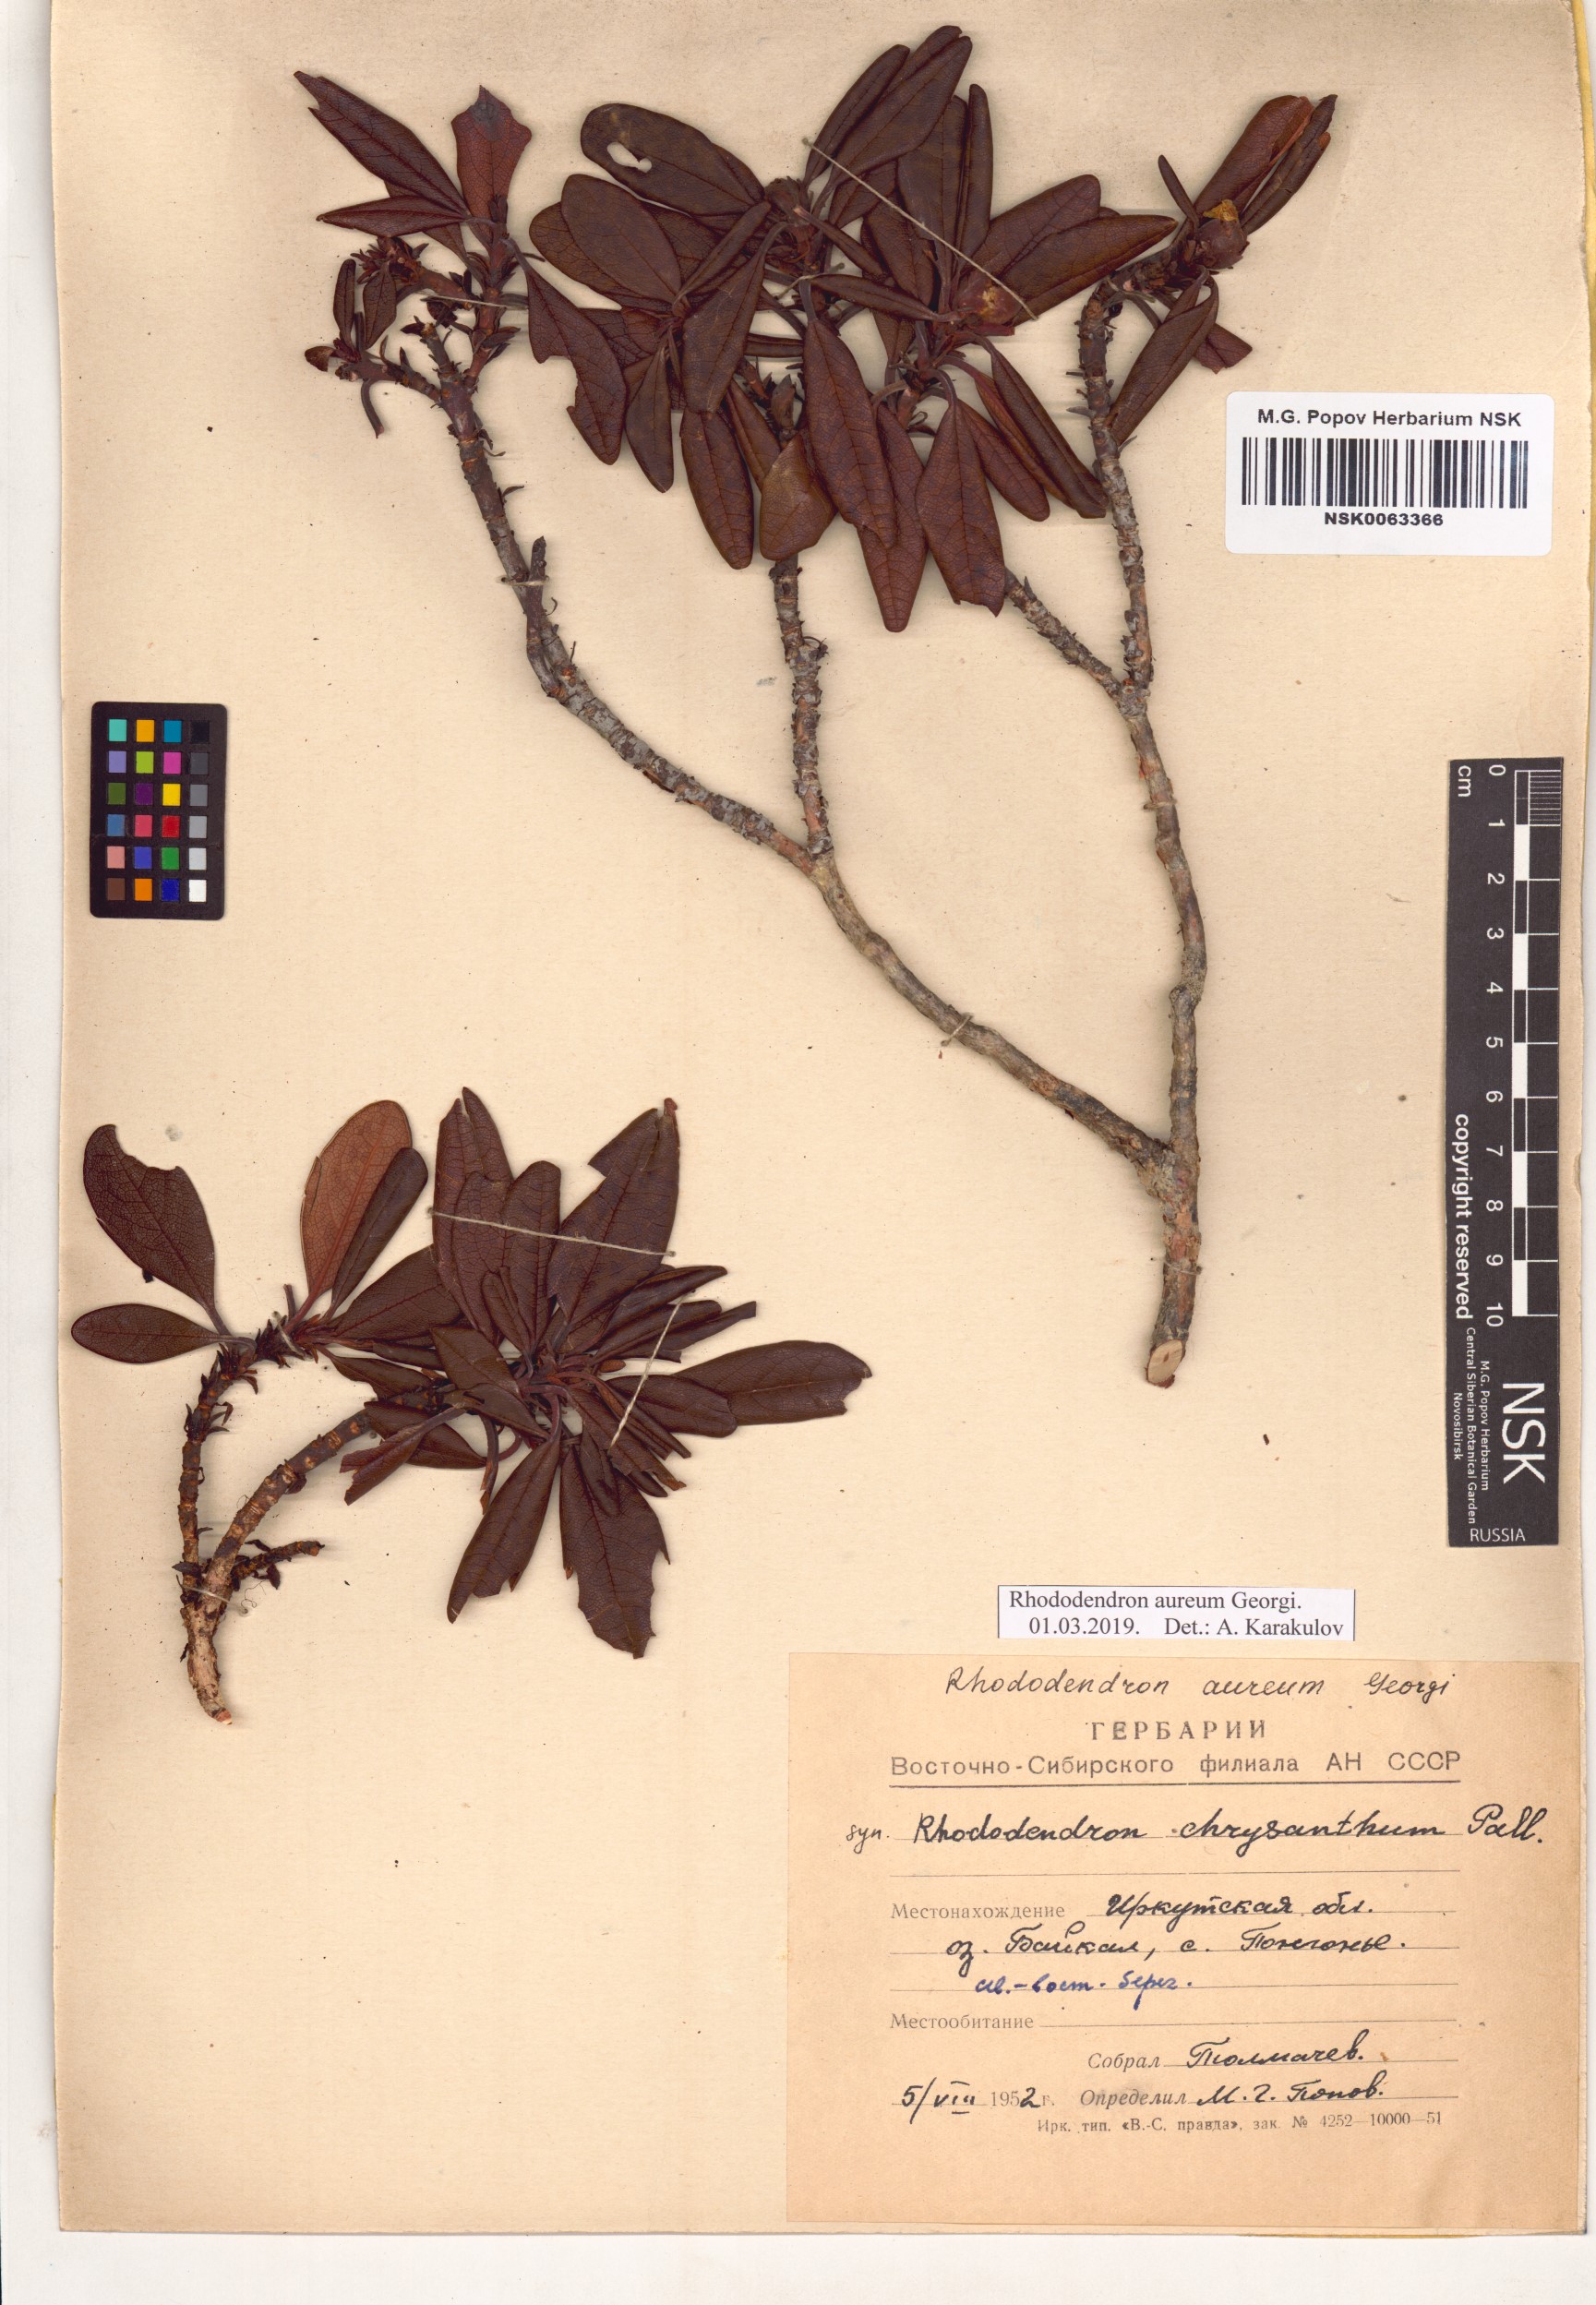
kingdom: Plantae
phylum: Tracheophyta
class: Magnoliopsida
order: Ericales
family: Ericaceae
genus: Rhododendron
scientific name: Rhododendron aureum
